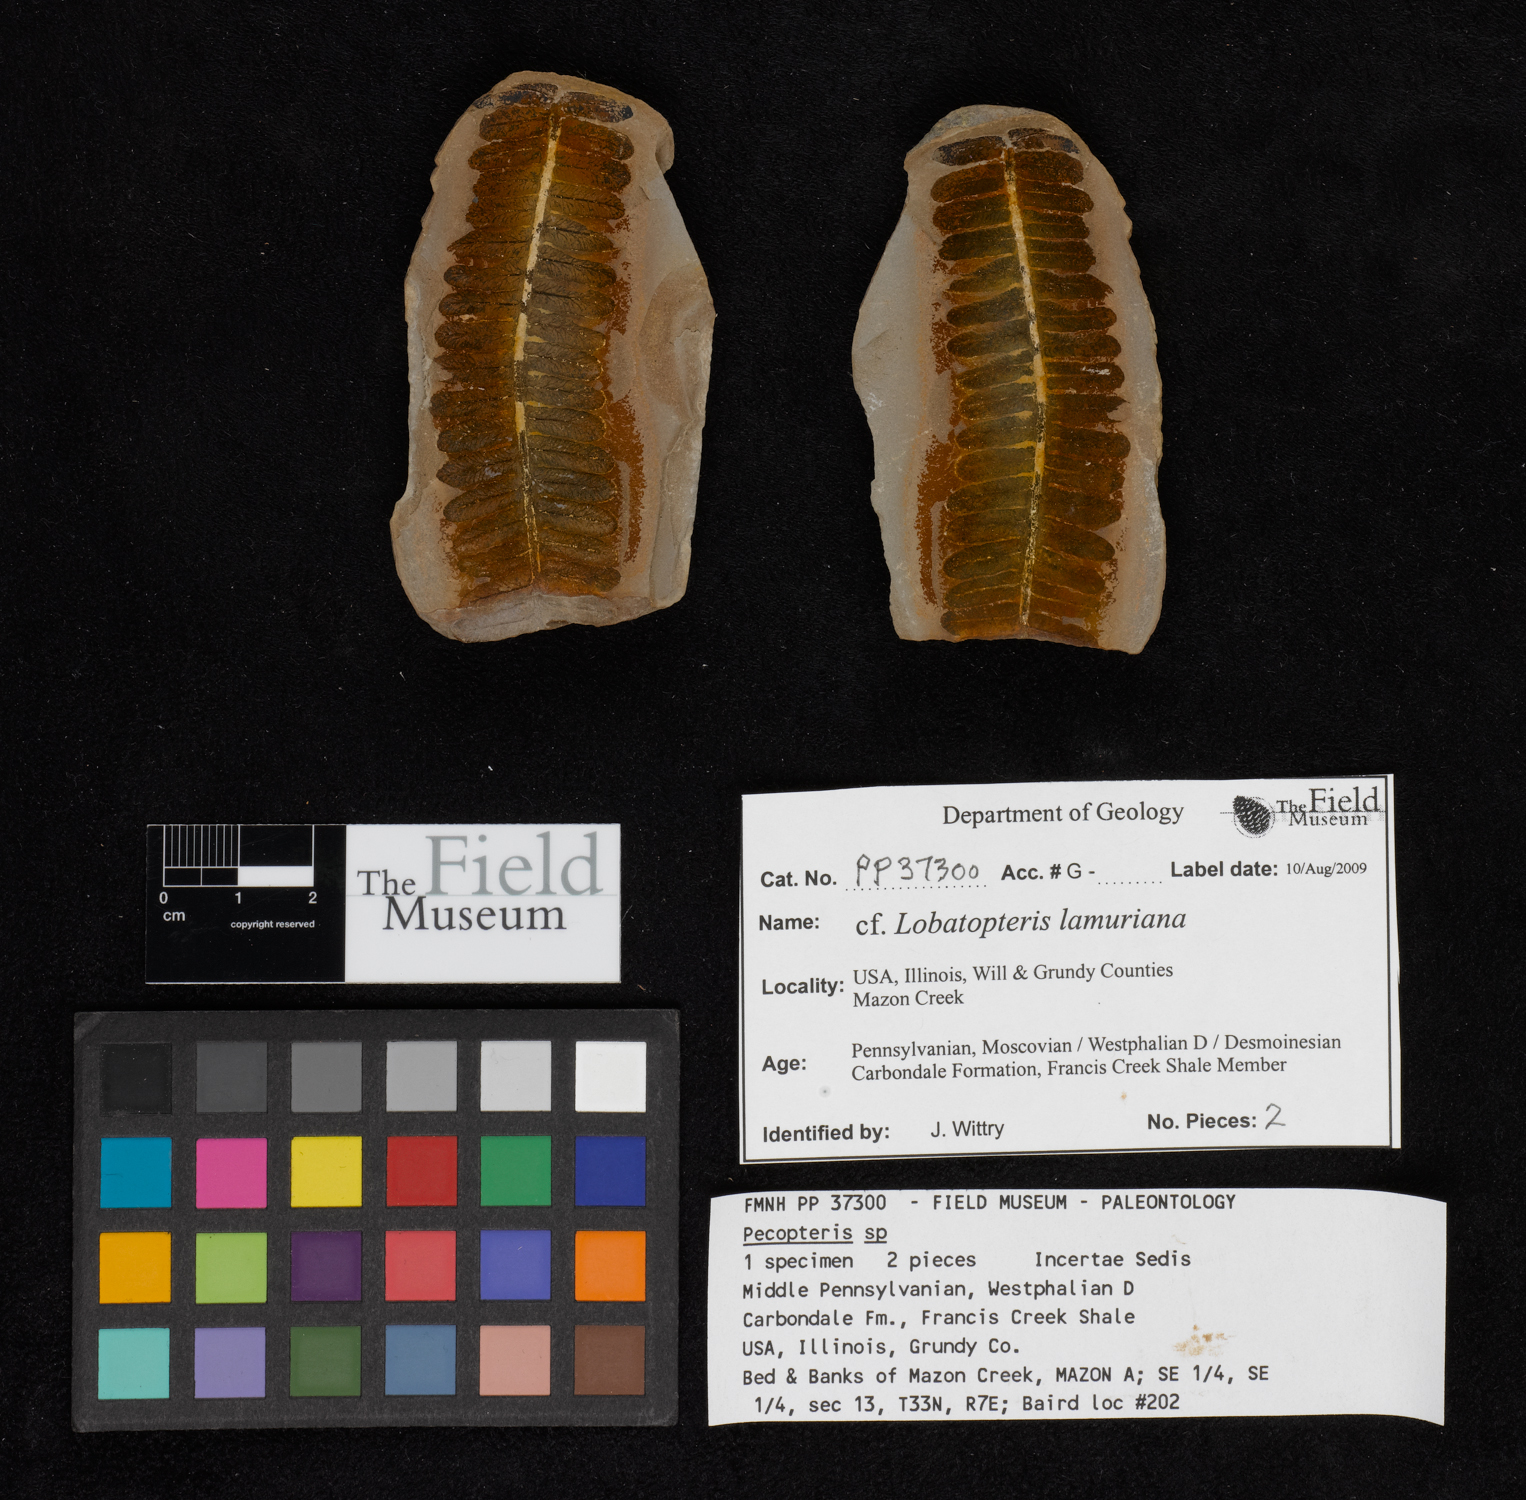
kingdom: Plantae
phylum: Tracheophyta
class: Polypodiopsida
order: Marattiales
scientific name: Marattiales
